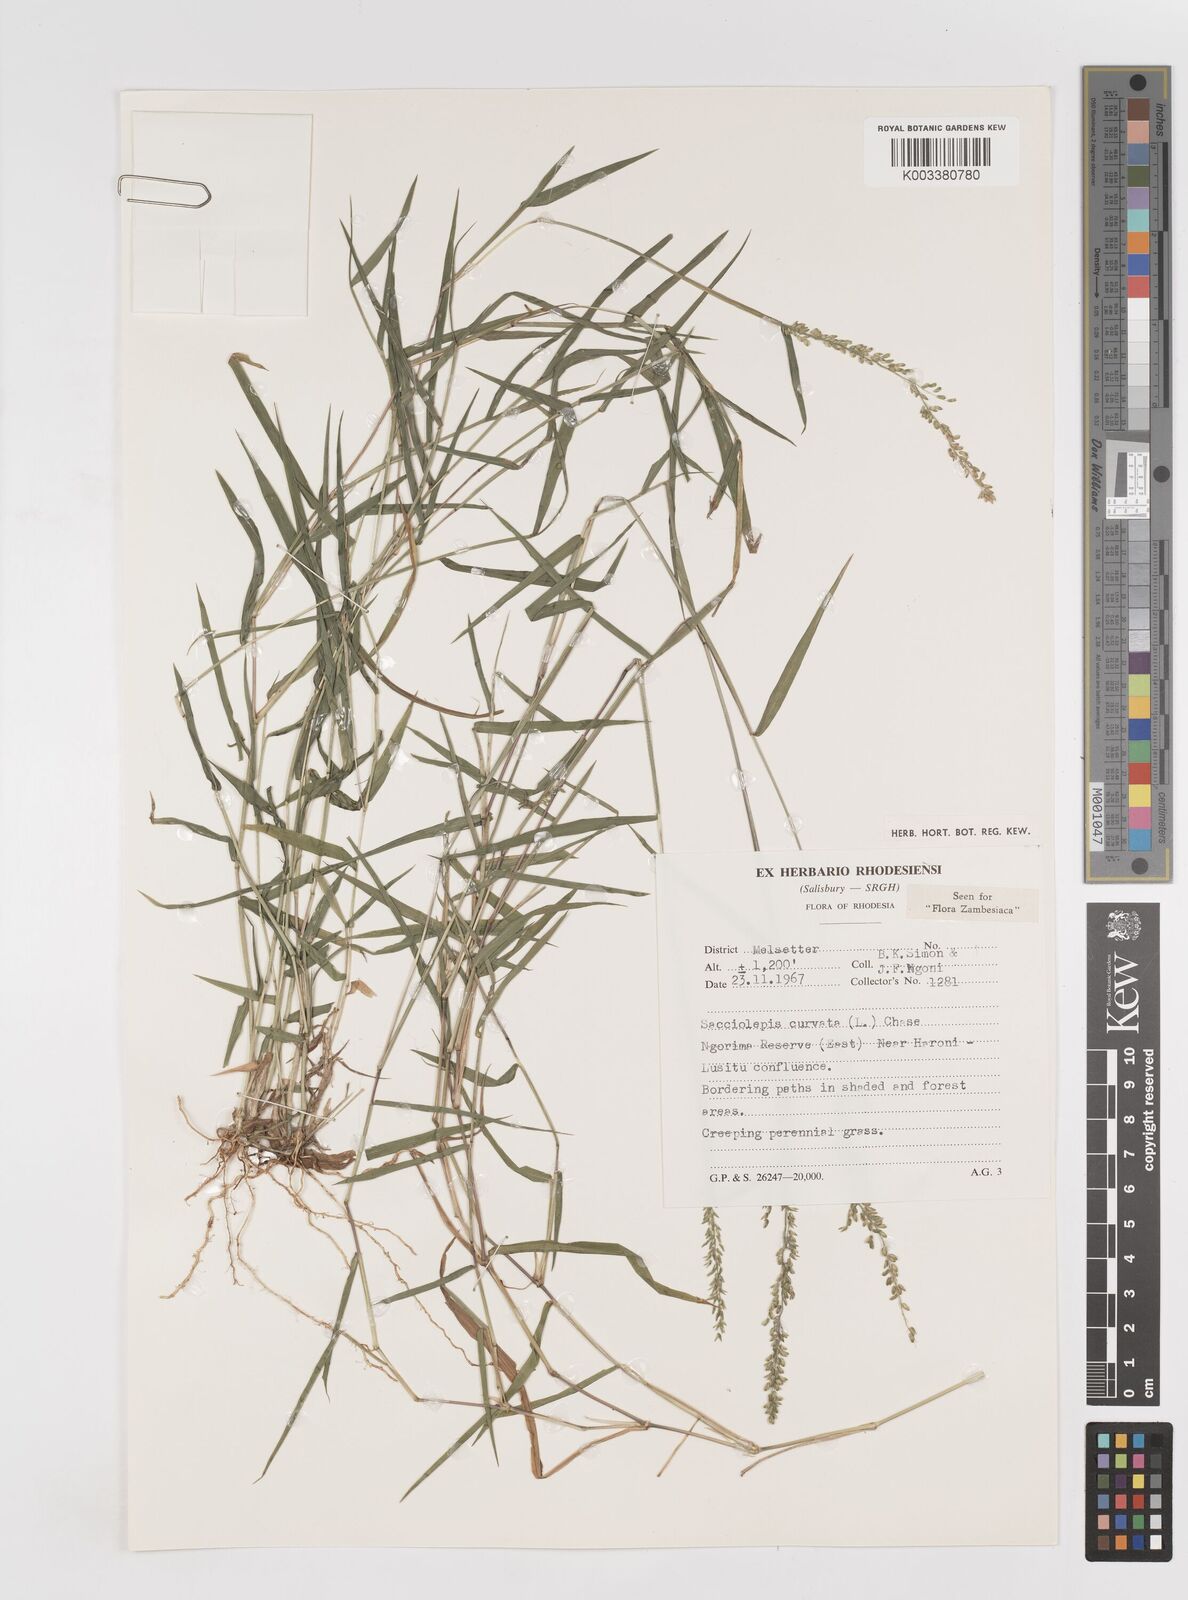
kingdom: Plantae
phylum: Tracheophyta
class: Liliopsida
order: Poales
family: Poaceae
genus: Sacciolepis
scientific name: Sacciolepis curvata
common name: Forest hood grass
